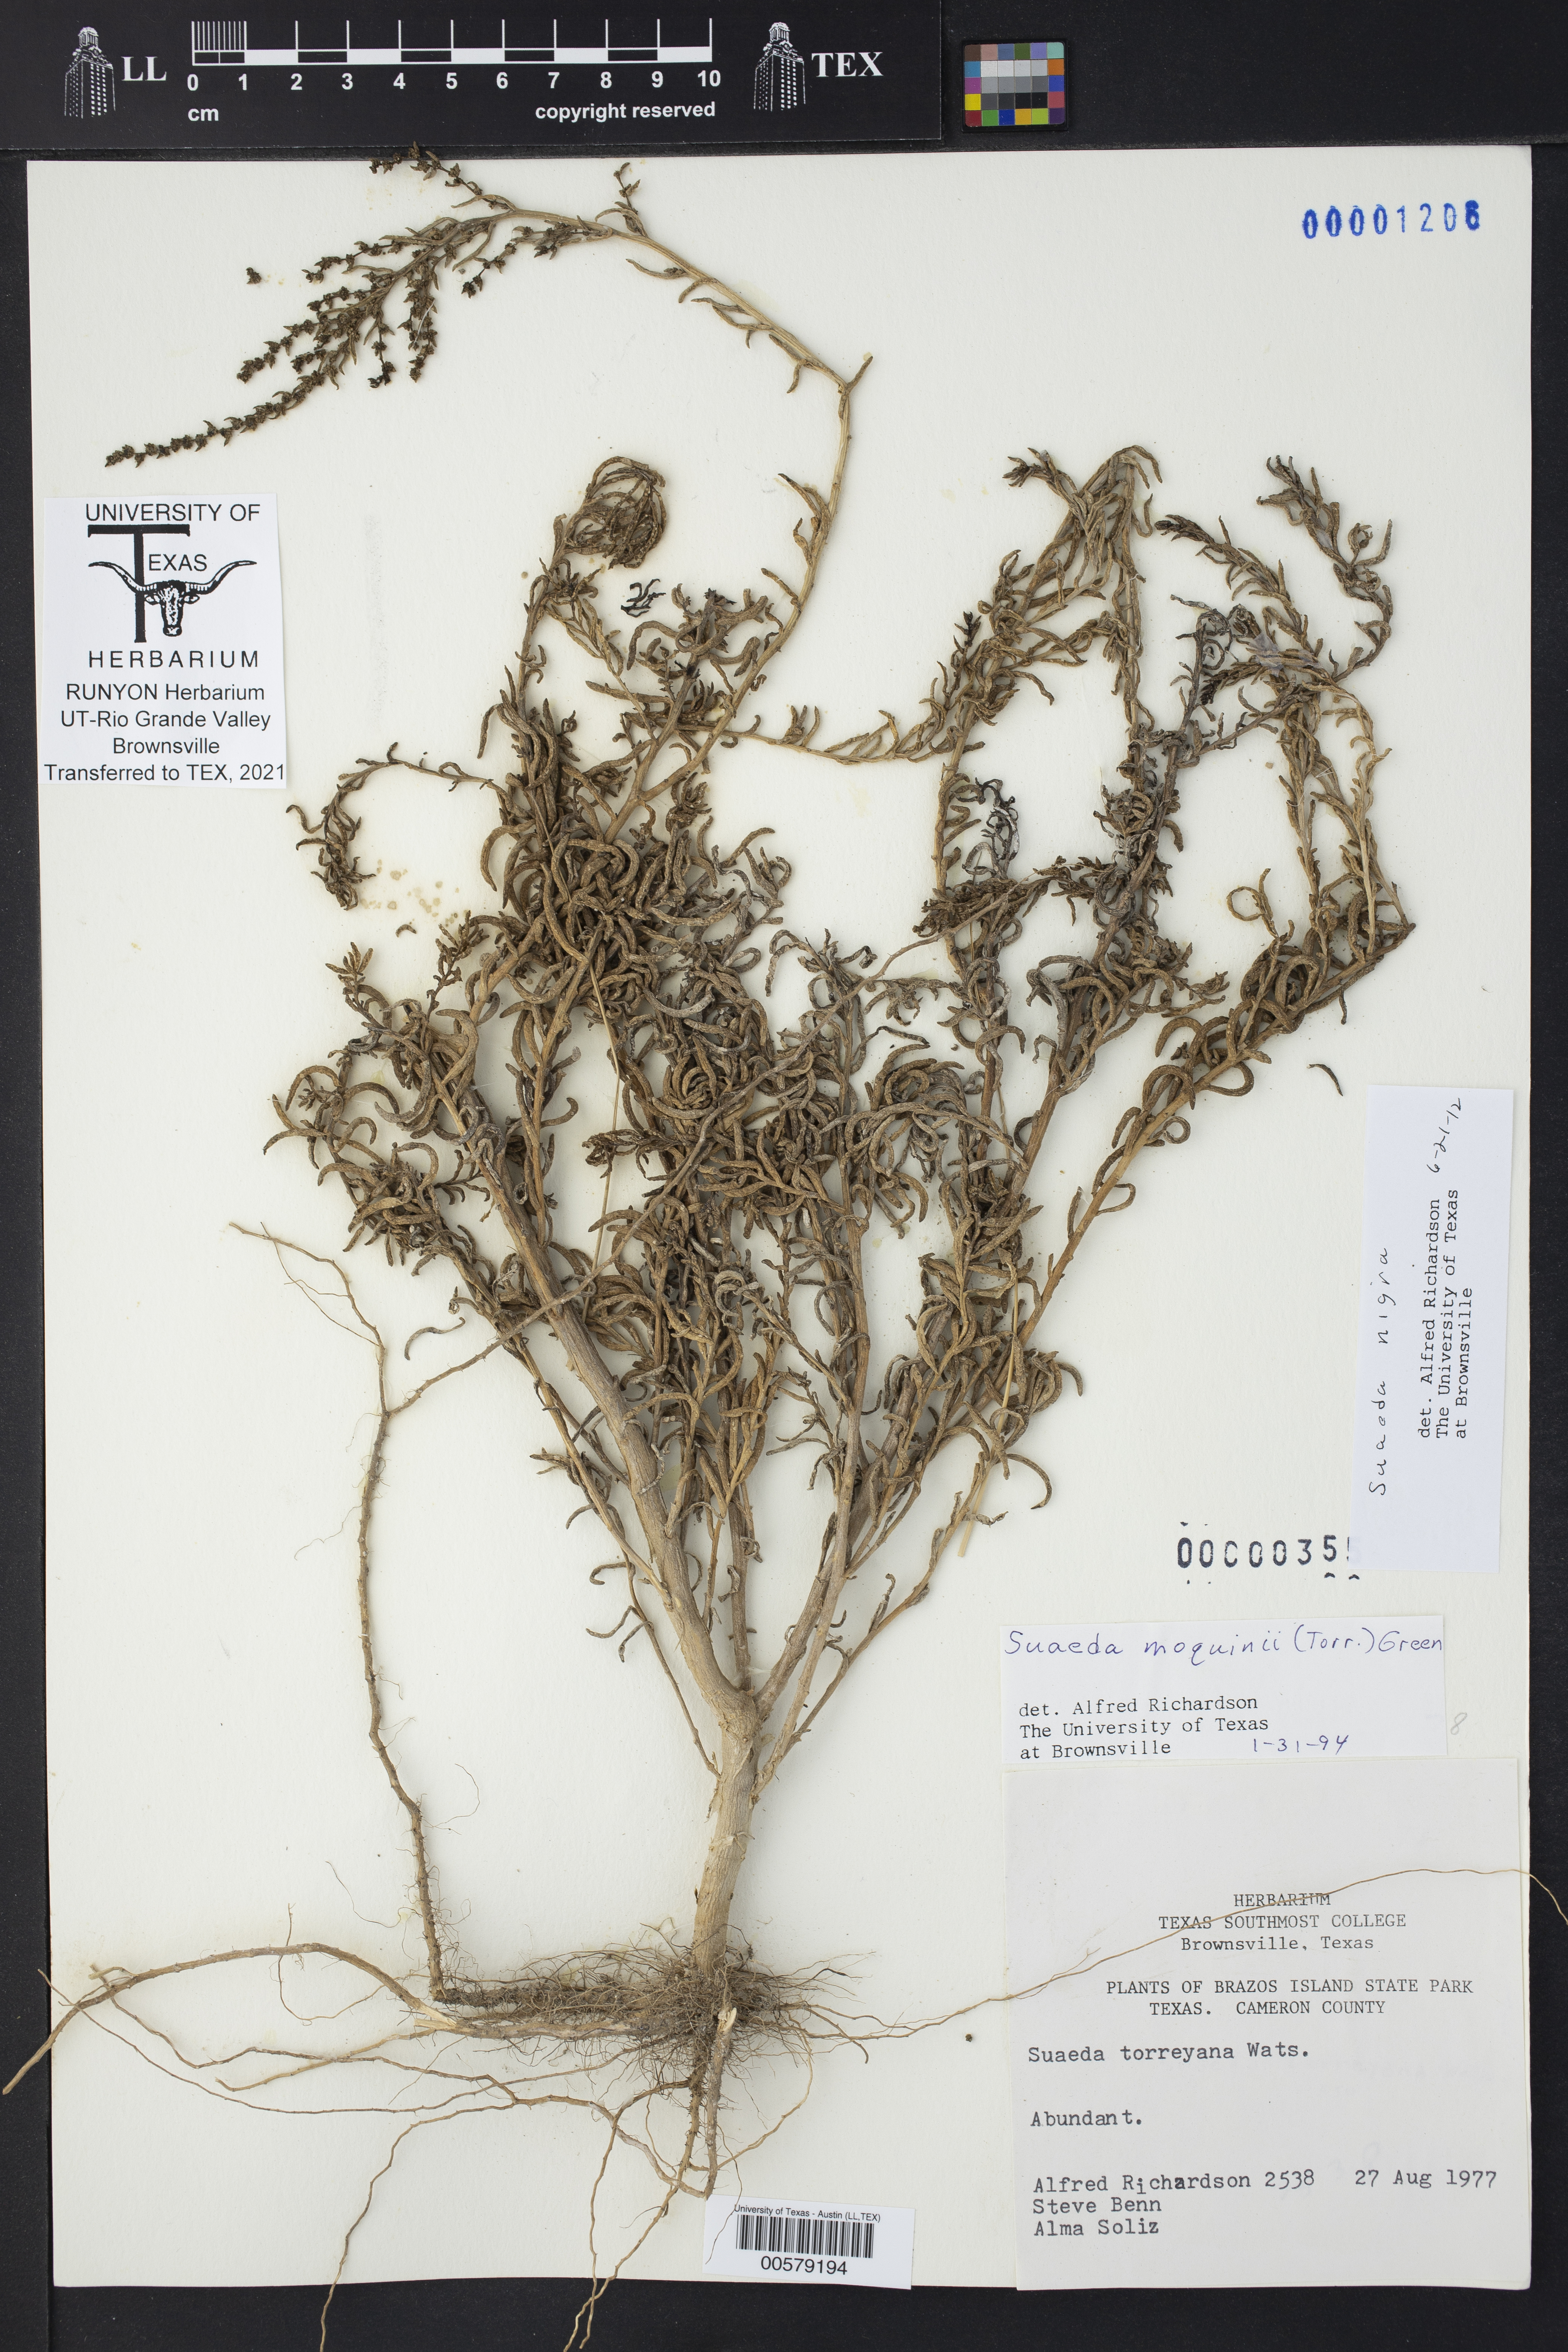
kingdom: Plantae
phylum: Tracheophyta
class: Magnoliopsida
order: Caryophyllales
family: Amaranthaceae
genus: Suaeda
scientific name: Suaeda nigra
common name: Bush seepweed
